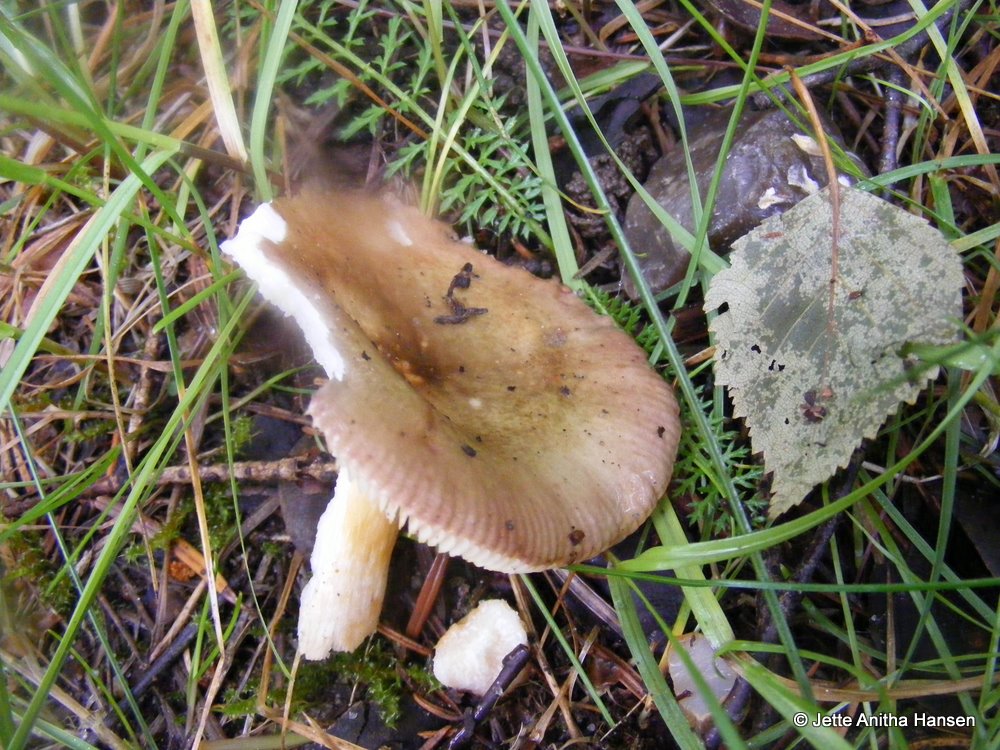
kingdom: Fungi
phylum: Basidiomycota
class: Agaricomycetes
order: Russulales
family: Russulaceae
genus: Russula
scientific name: Russula versicolor
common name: foranderlig skørhat
